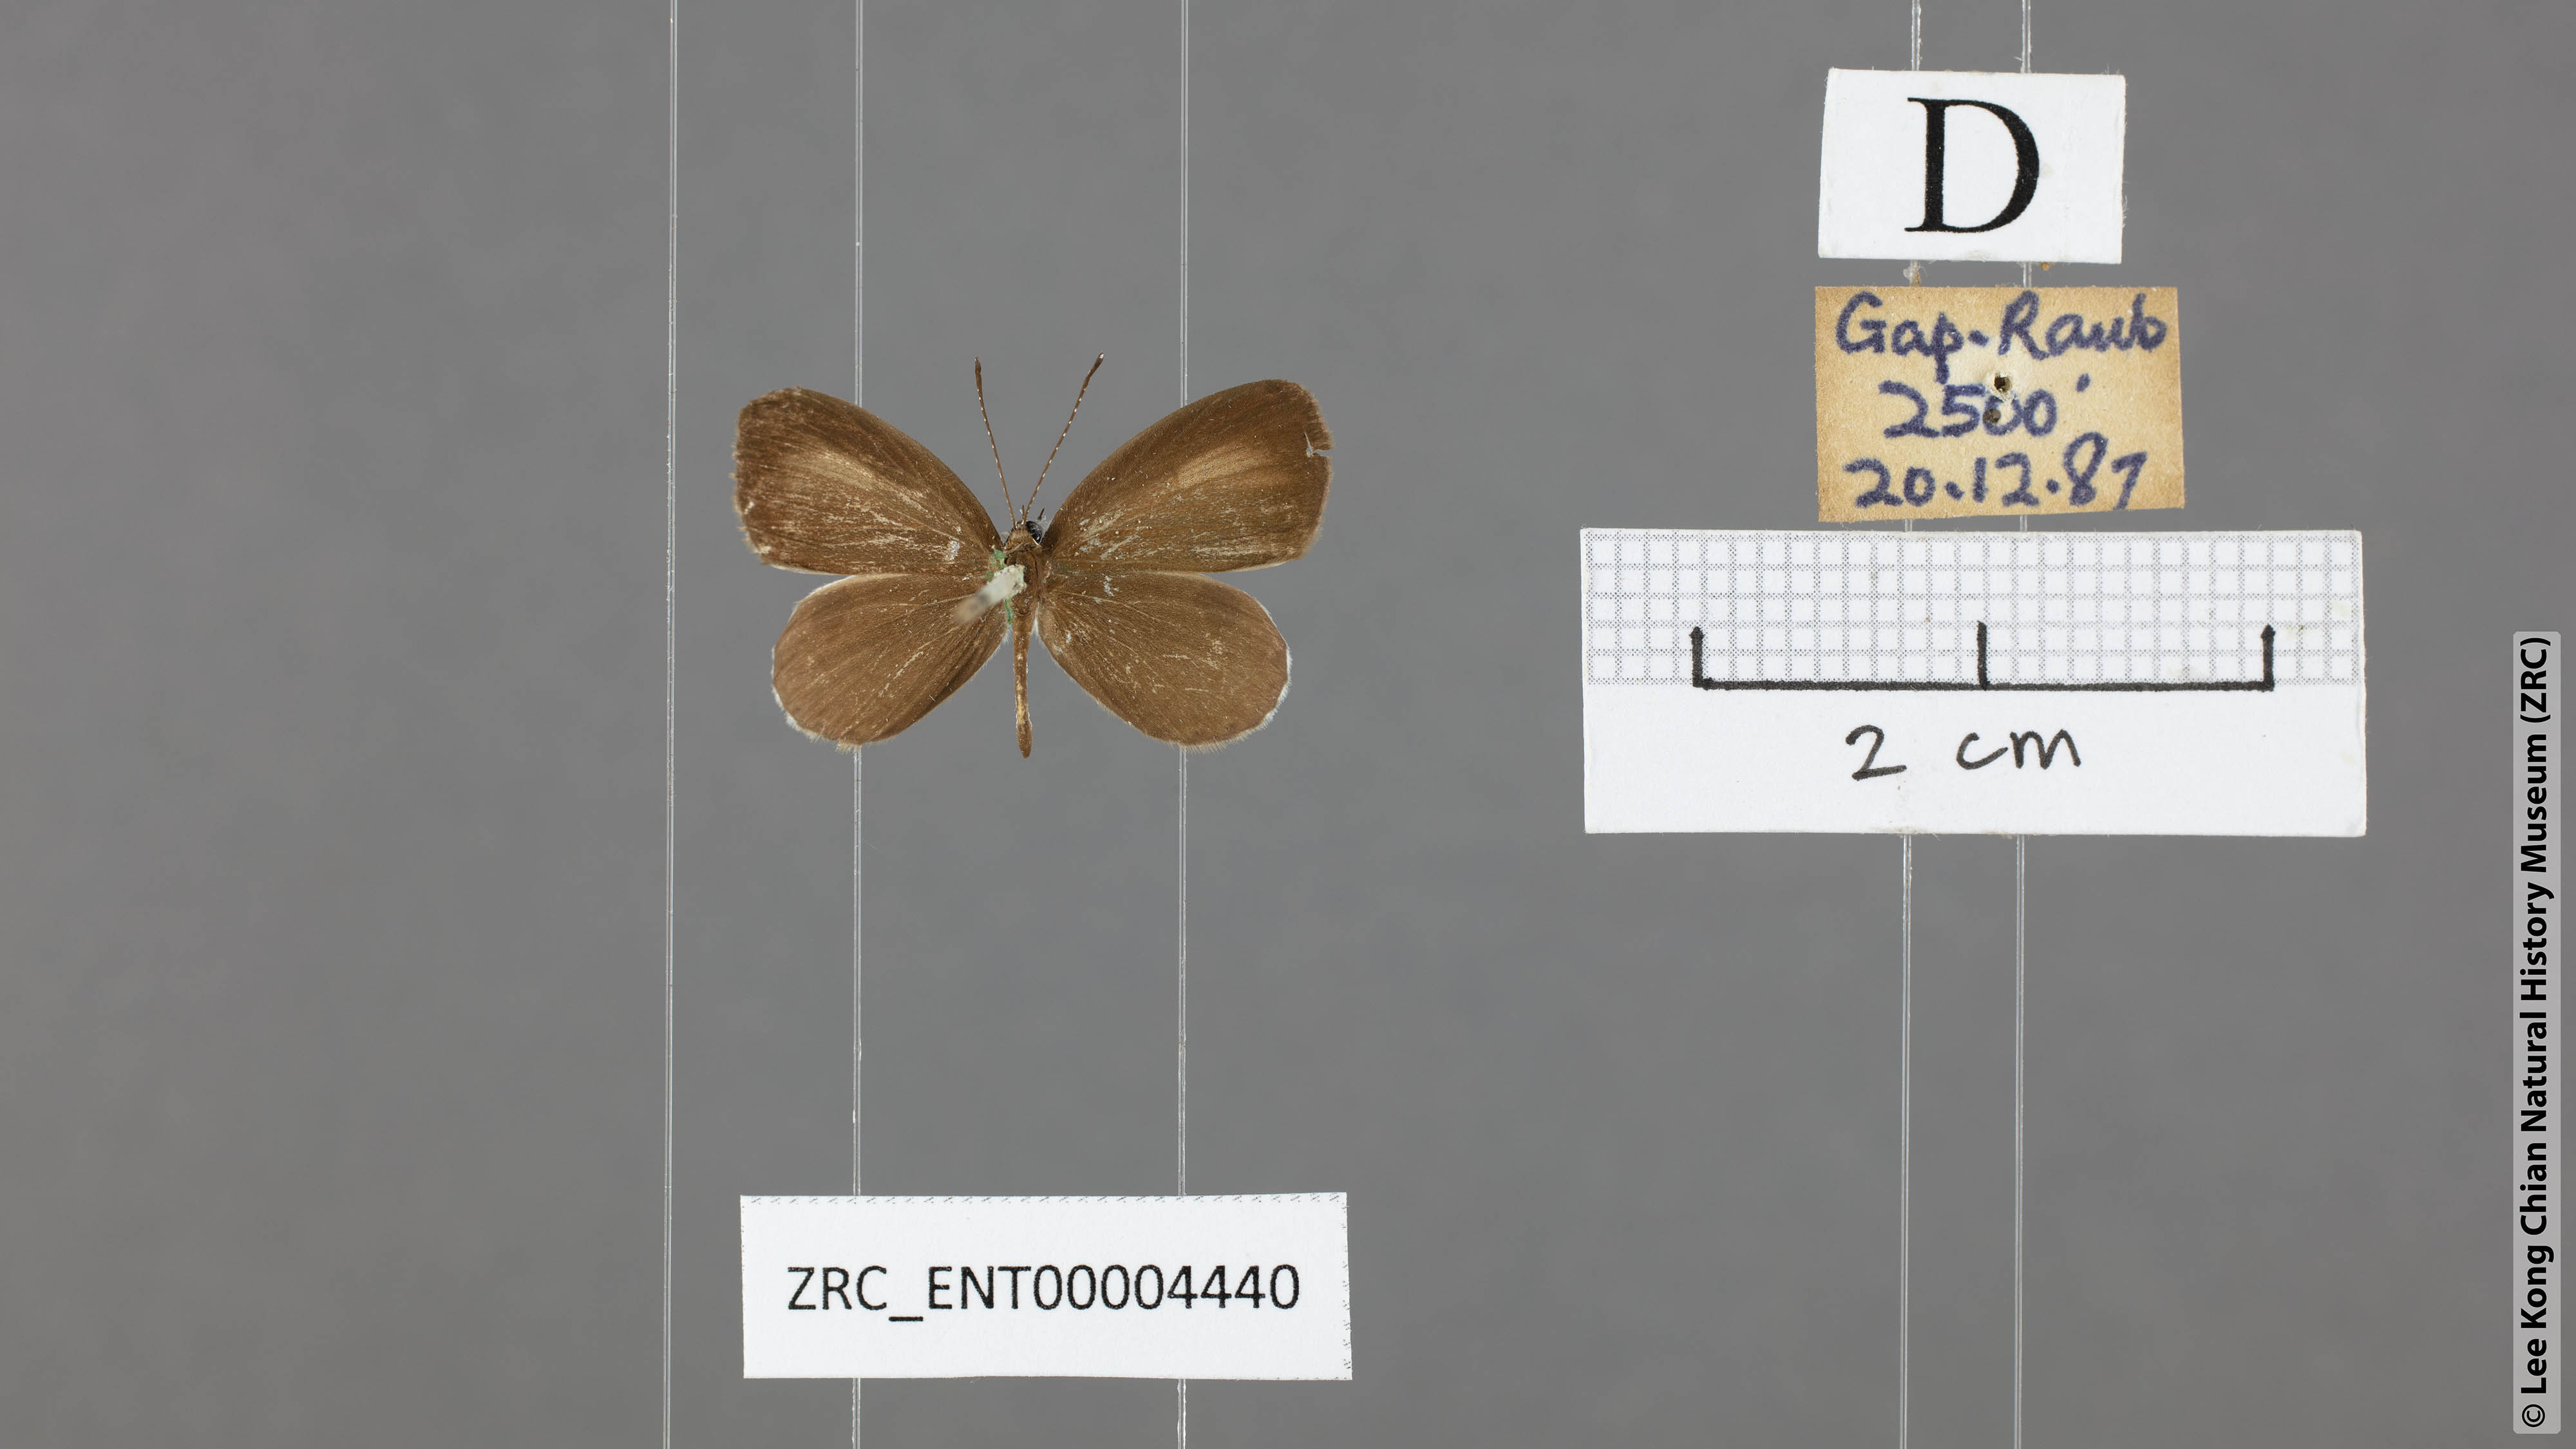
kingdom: Animalia
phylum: Arthropoda
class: Insecta
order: Lepidoptera
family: Lycaenidae
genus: Pithecops
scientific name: Pithecops corvus
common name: Forest quaker
